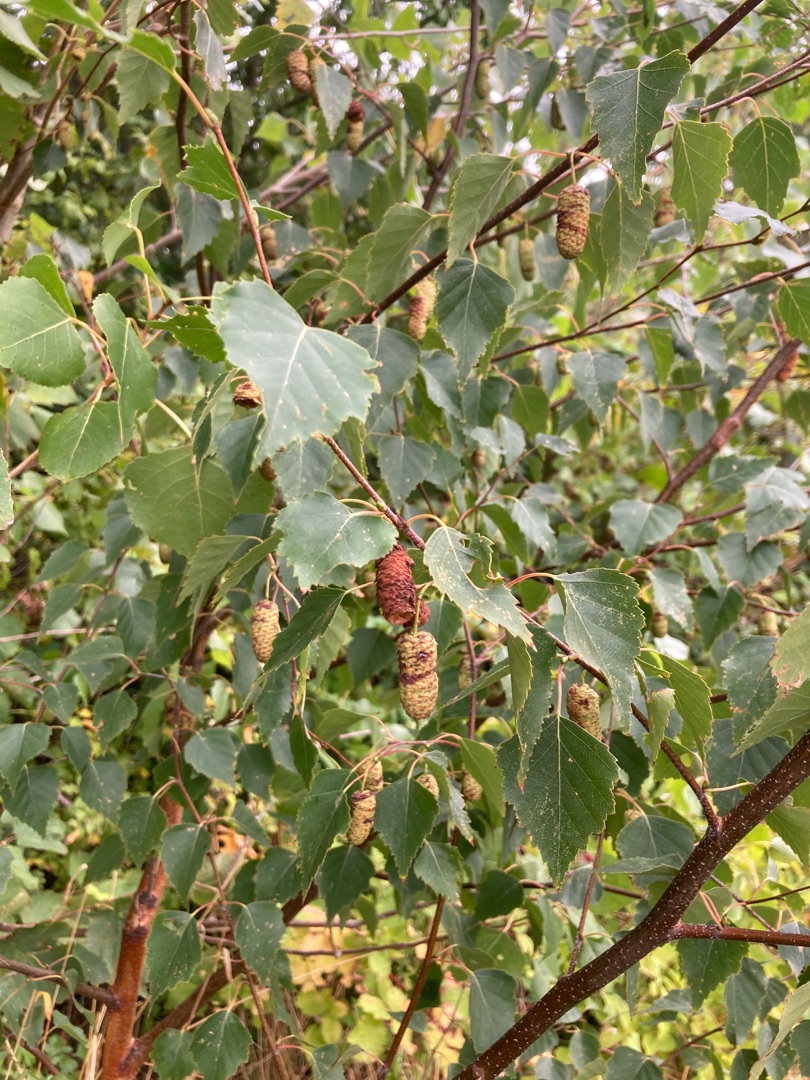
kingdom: Plantae
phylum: Tracheophyta
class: Magnoliopsida
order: Fagales
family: Betulaceae
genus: Betula
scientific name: Betula pendula
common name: Vorte-birk
